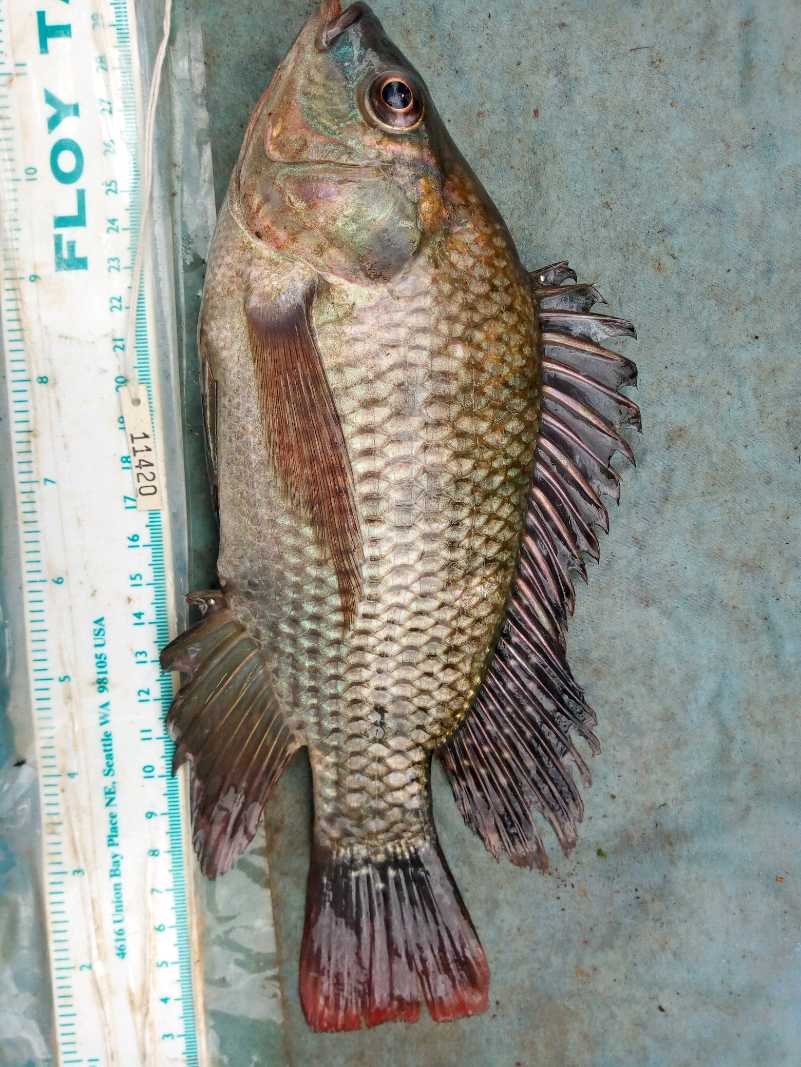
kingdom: Animalia
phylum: Chordata
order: Perciformes
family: Cichlidae
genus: Oreochromis
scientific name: Oreochromis niloticus
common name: Nile tilapia
